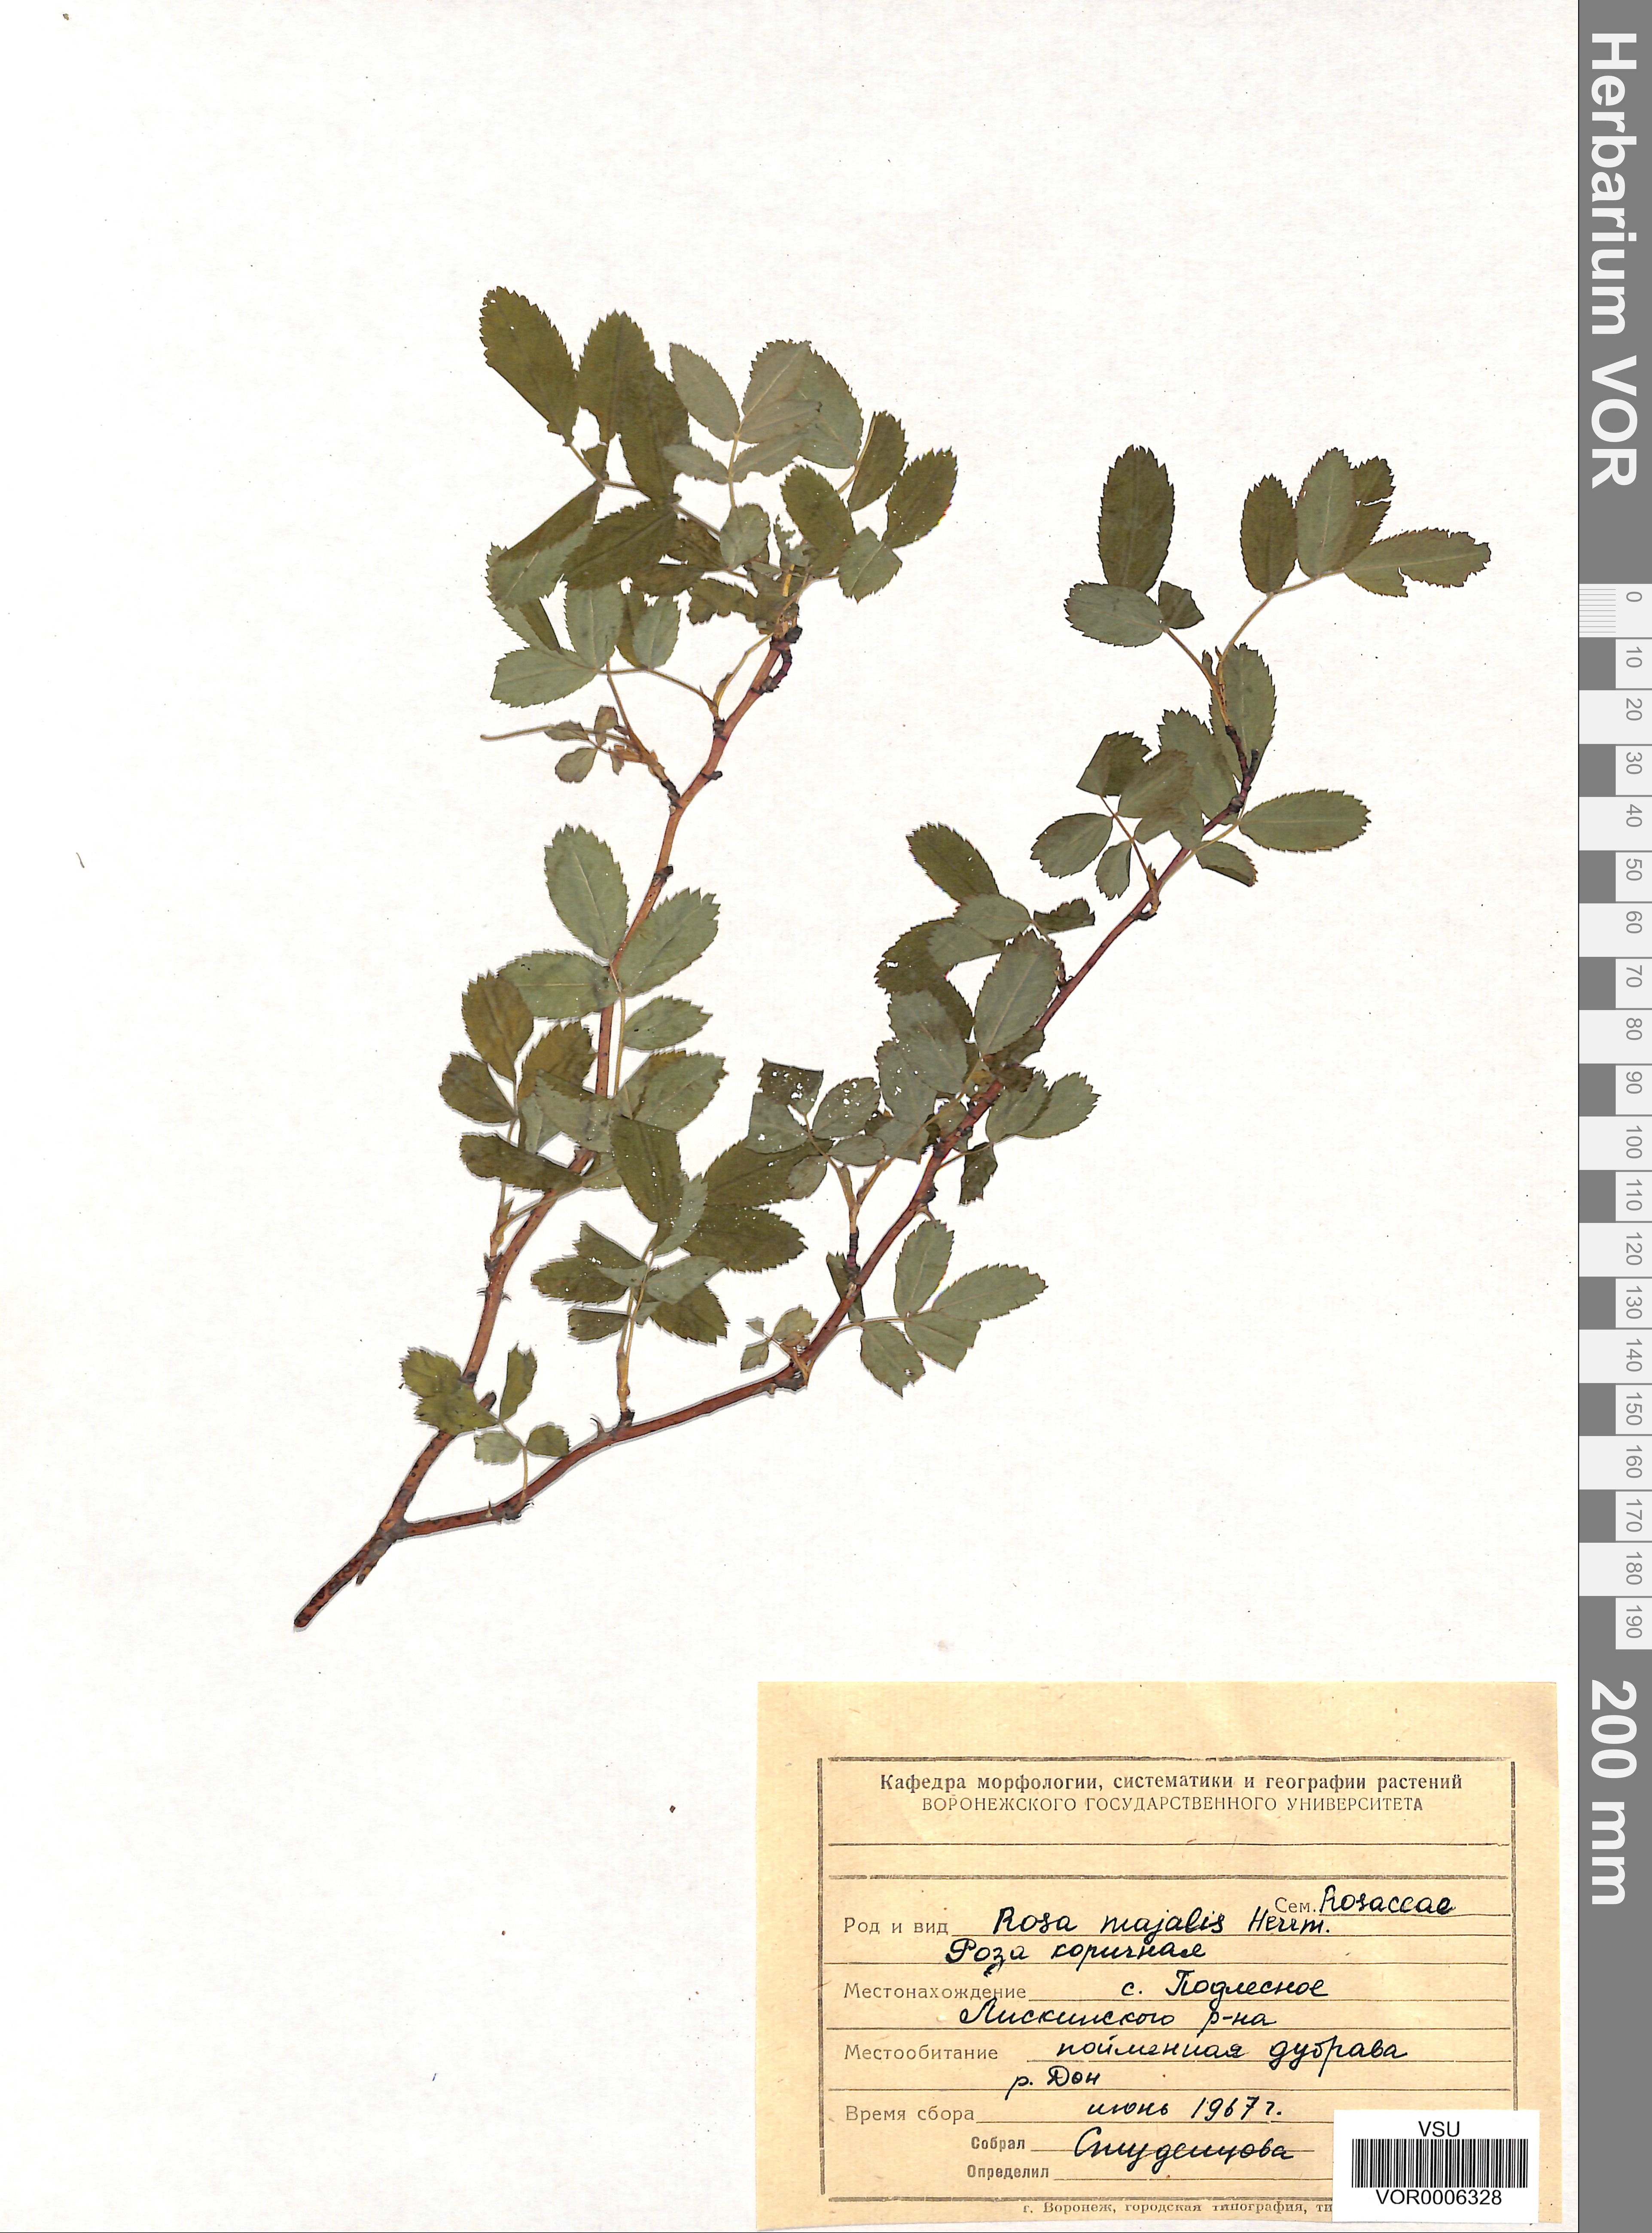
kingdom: Plantae
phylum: Tracheophyta
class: Magnoliopsida
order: Rosales
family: Rosaceae
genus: Rosa
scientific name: Rosa majalis
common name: Cinnamon rose
